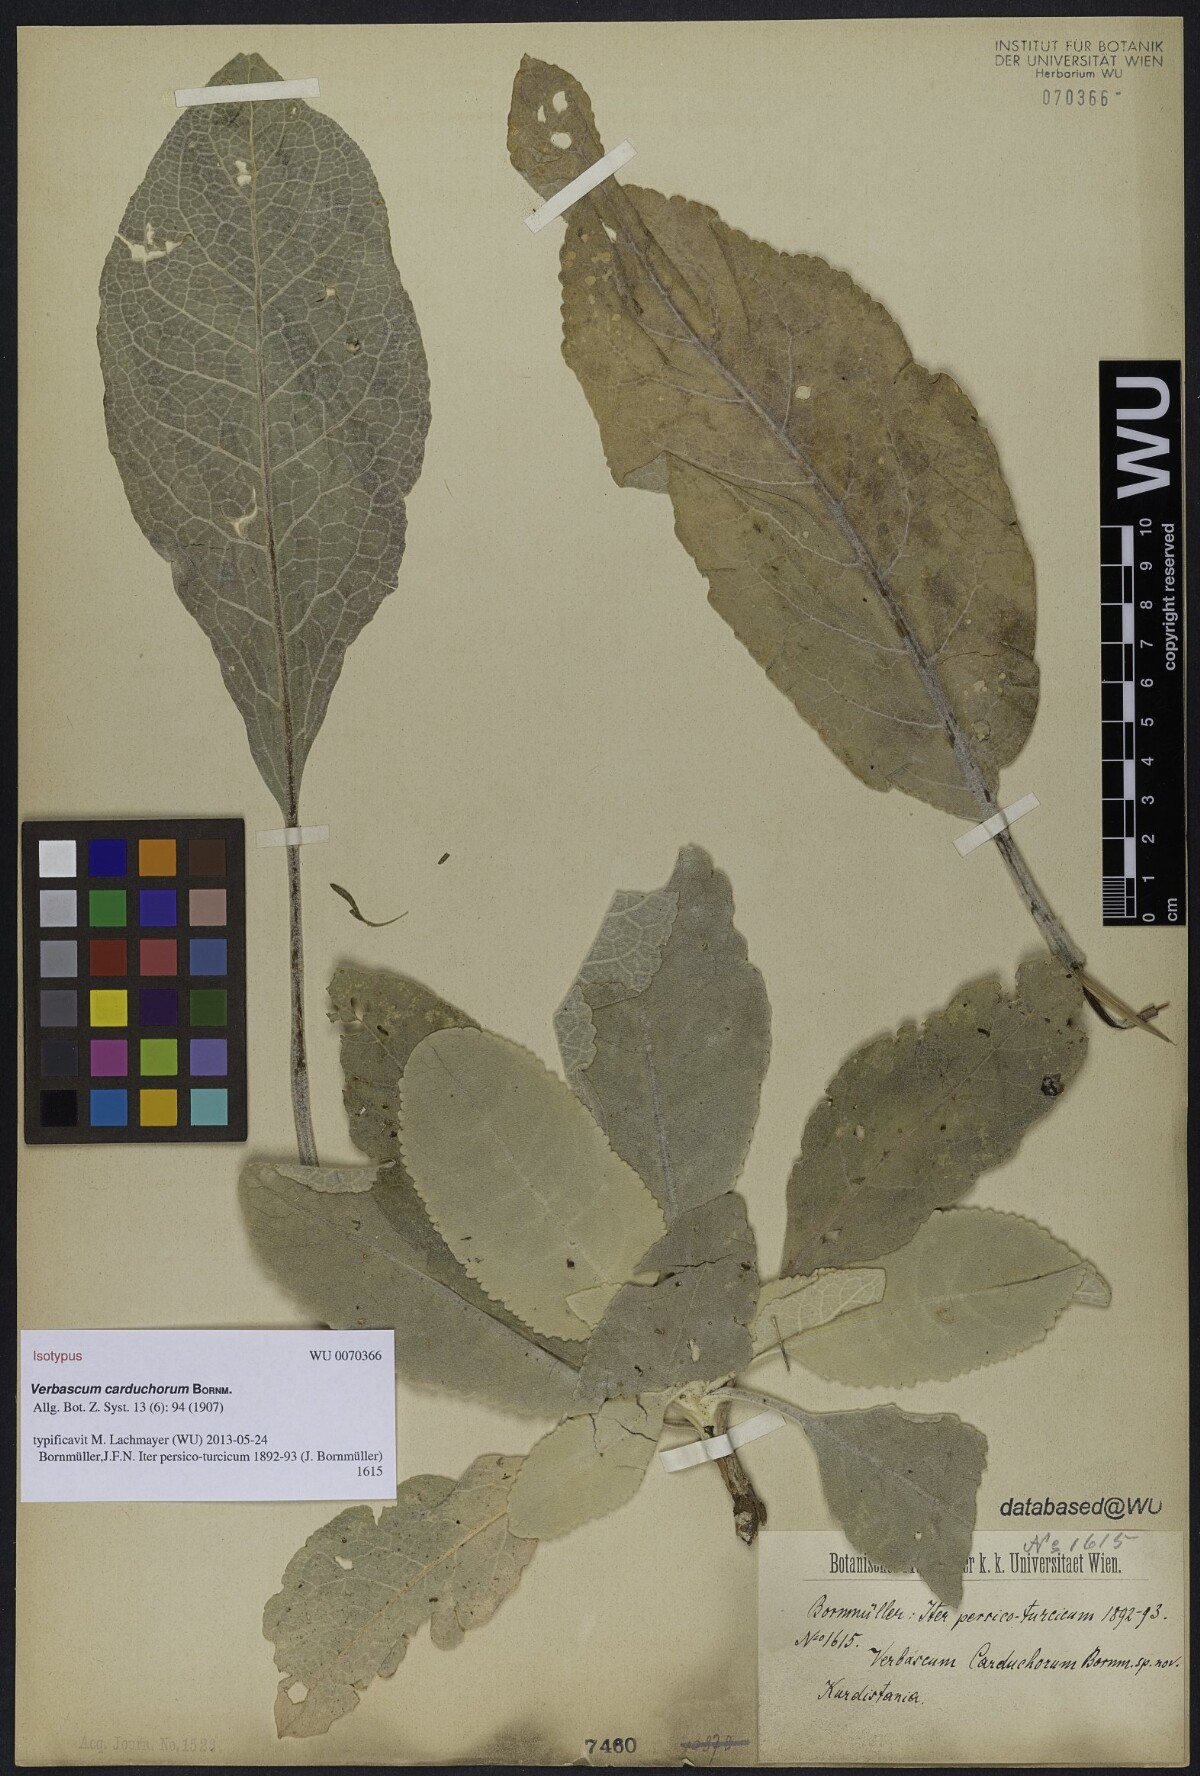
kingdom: Plantae
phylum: Tracheophyta
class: Magnoliopsida
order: Lamiales
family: Scrophulariaceae
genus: Verbascum
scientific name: Verbascum carduchorum
